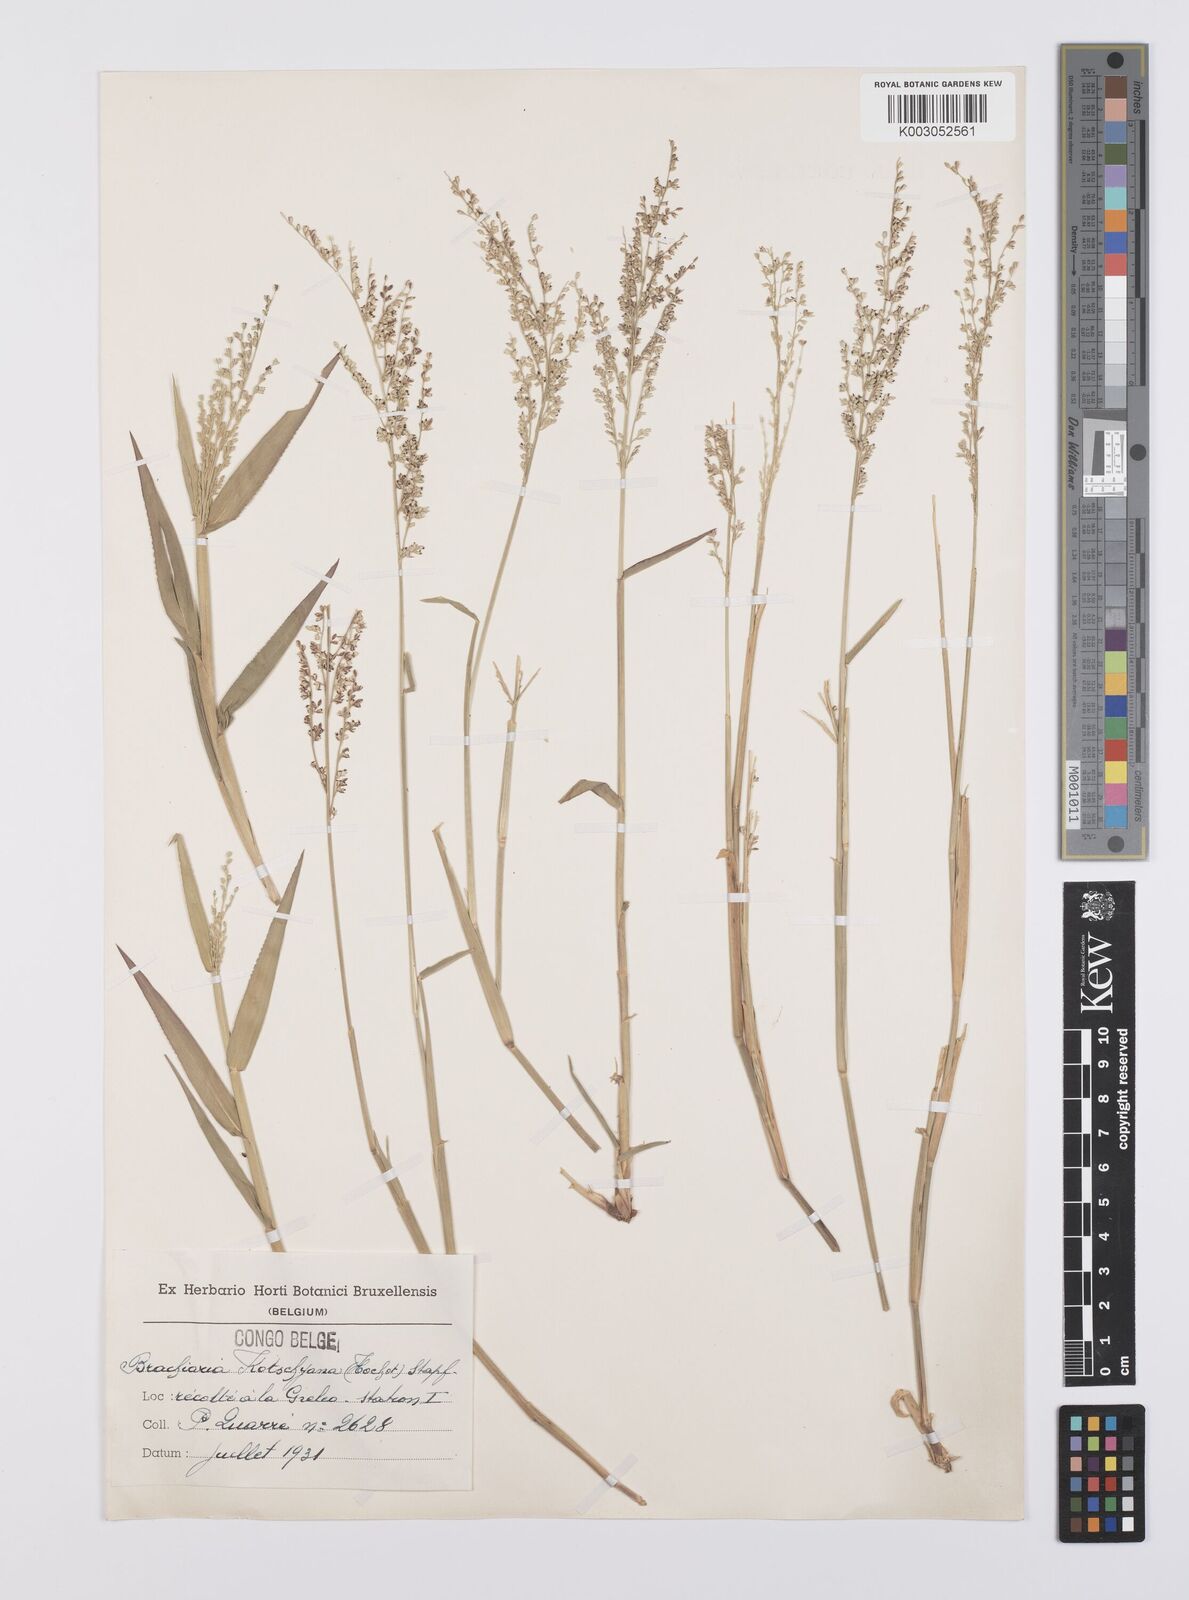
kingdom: Plantae
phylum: Tracheophyta
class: Liliopsida
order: Poales
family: Poaceae
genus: Urochloa
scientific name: Urochloa comata
